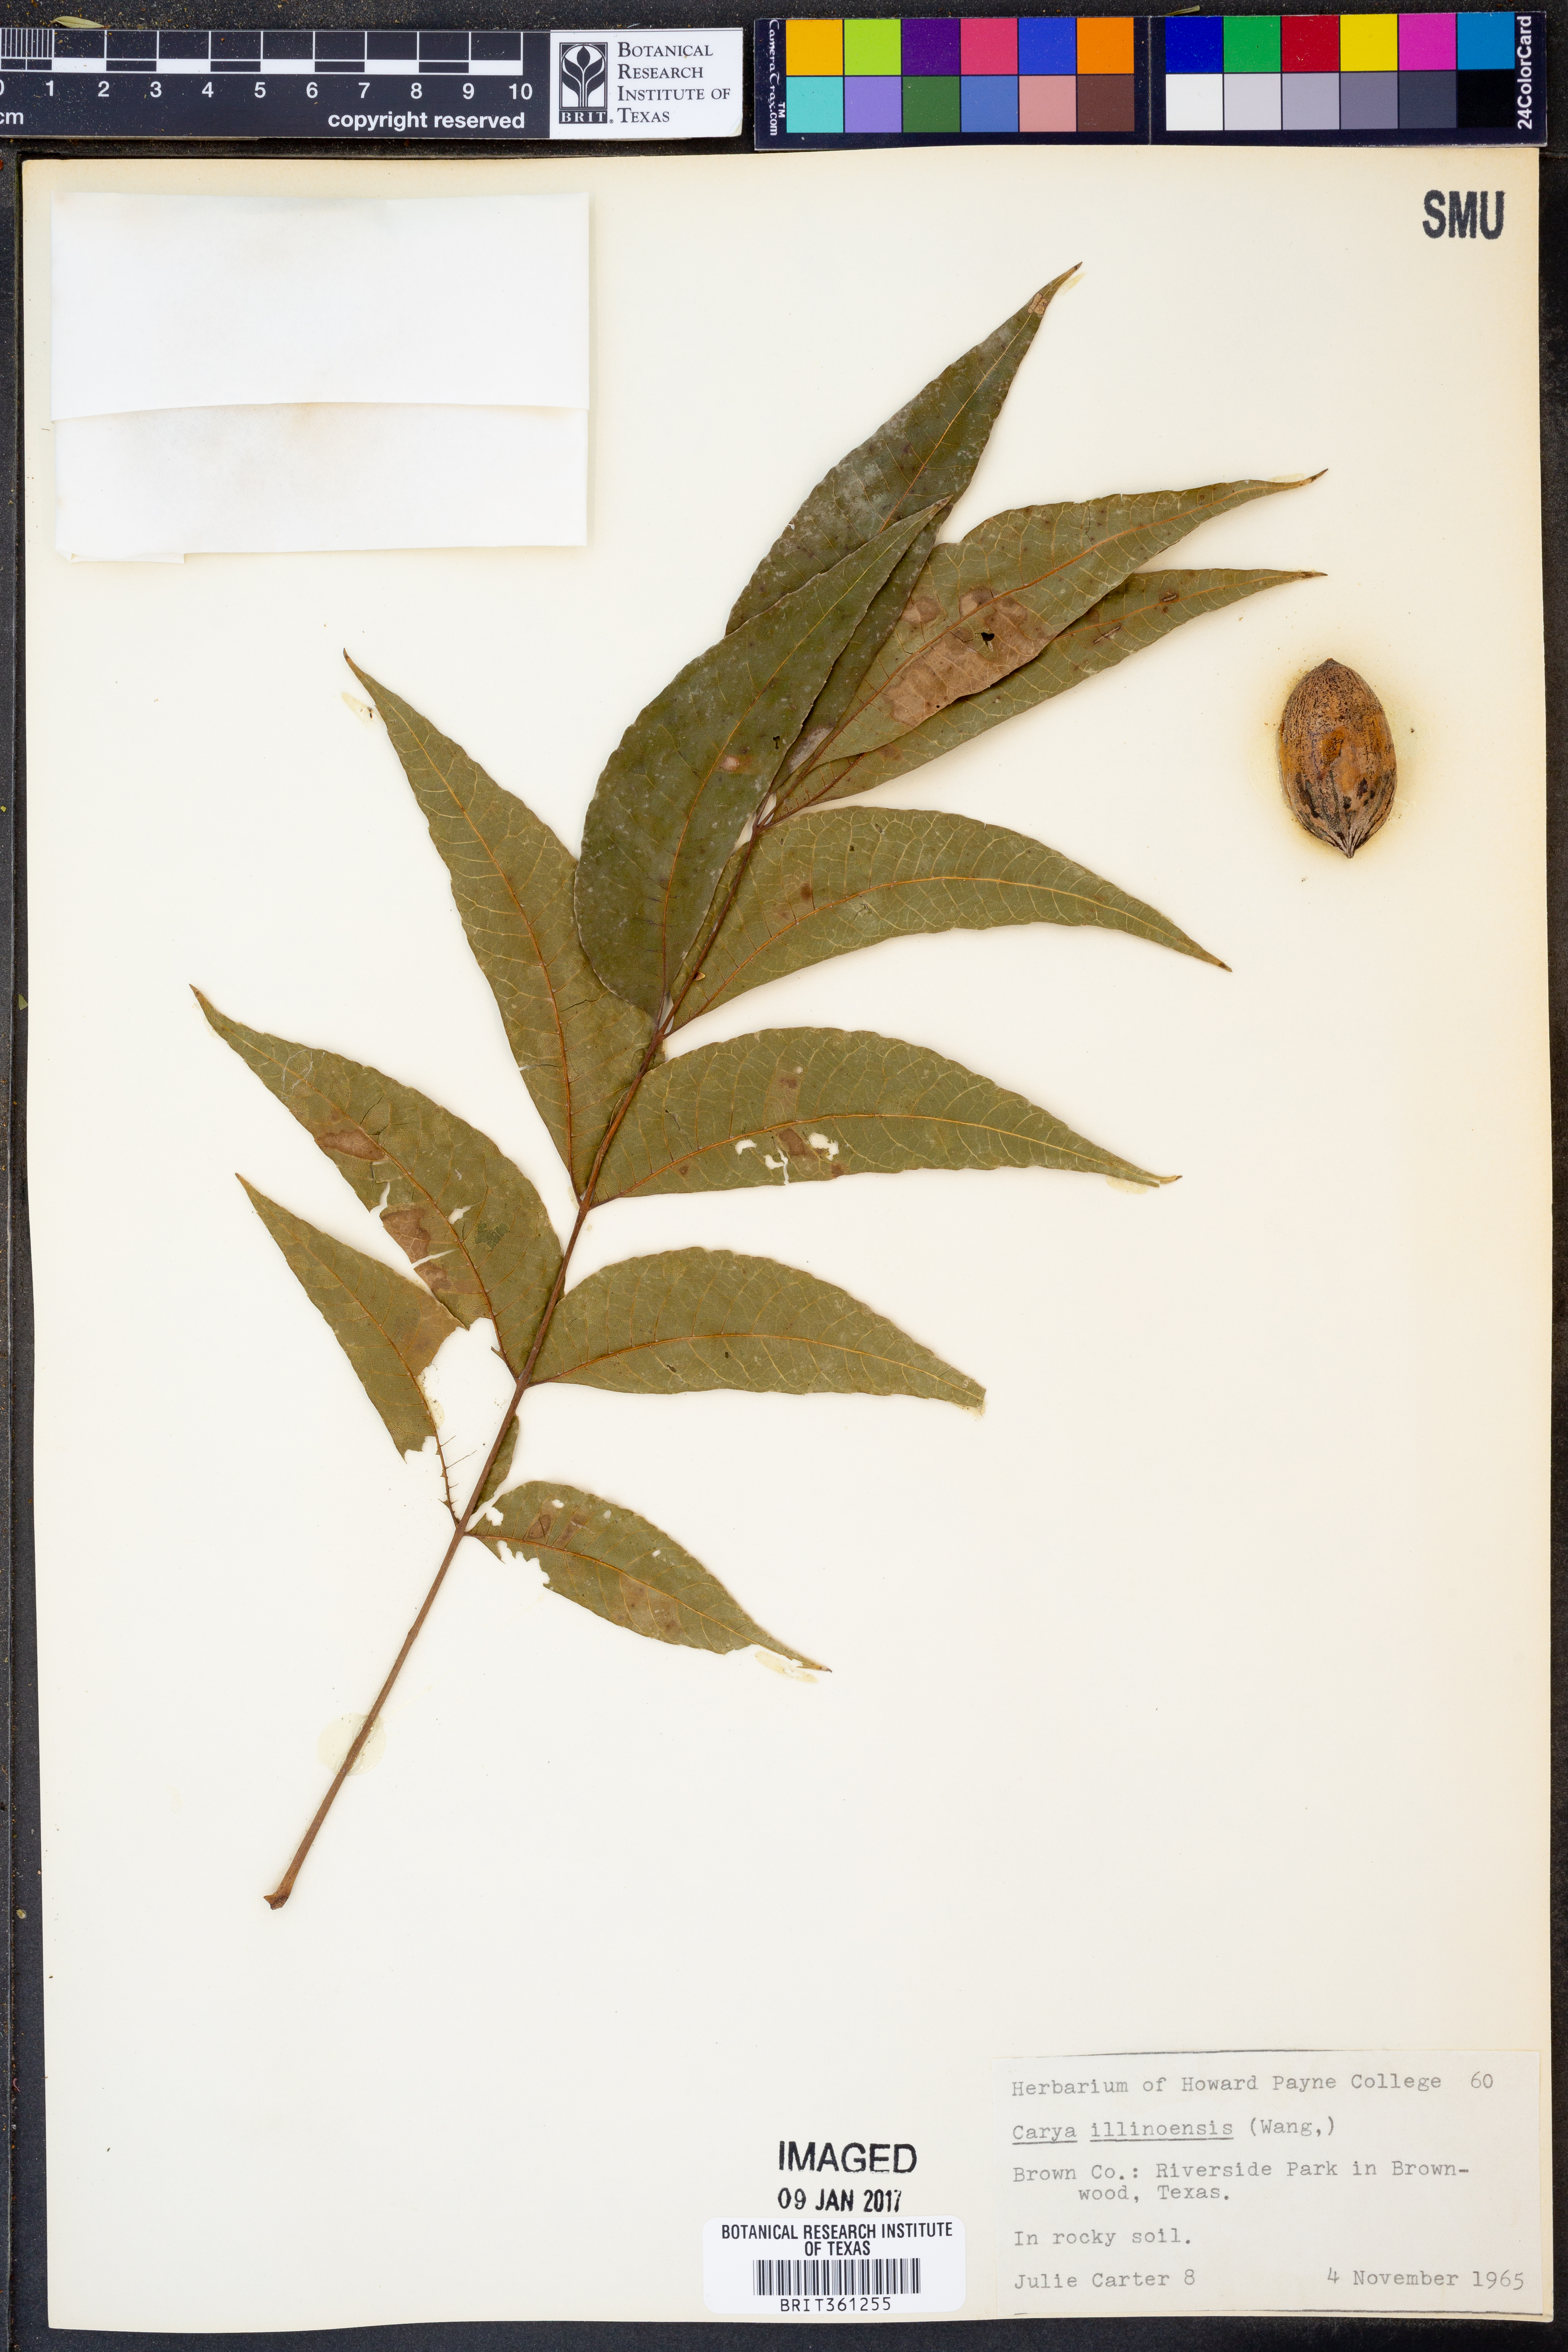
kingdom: Plantae
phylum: Tracheophyta
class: Magnoliopsida
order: Fagales
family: Juglandaceae
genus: Carya
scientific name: Carya illinoinensis
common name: Pecan
